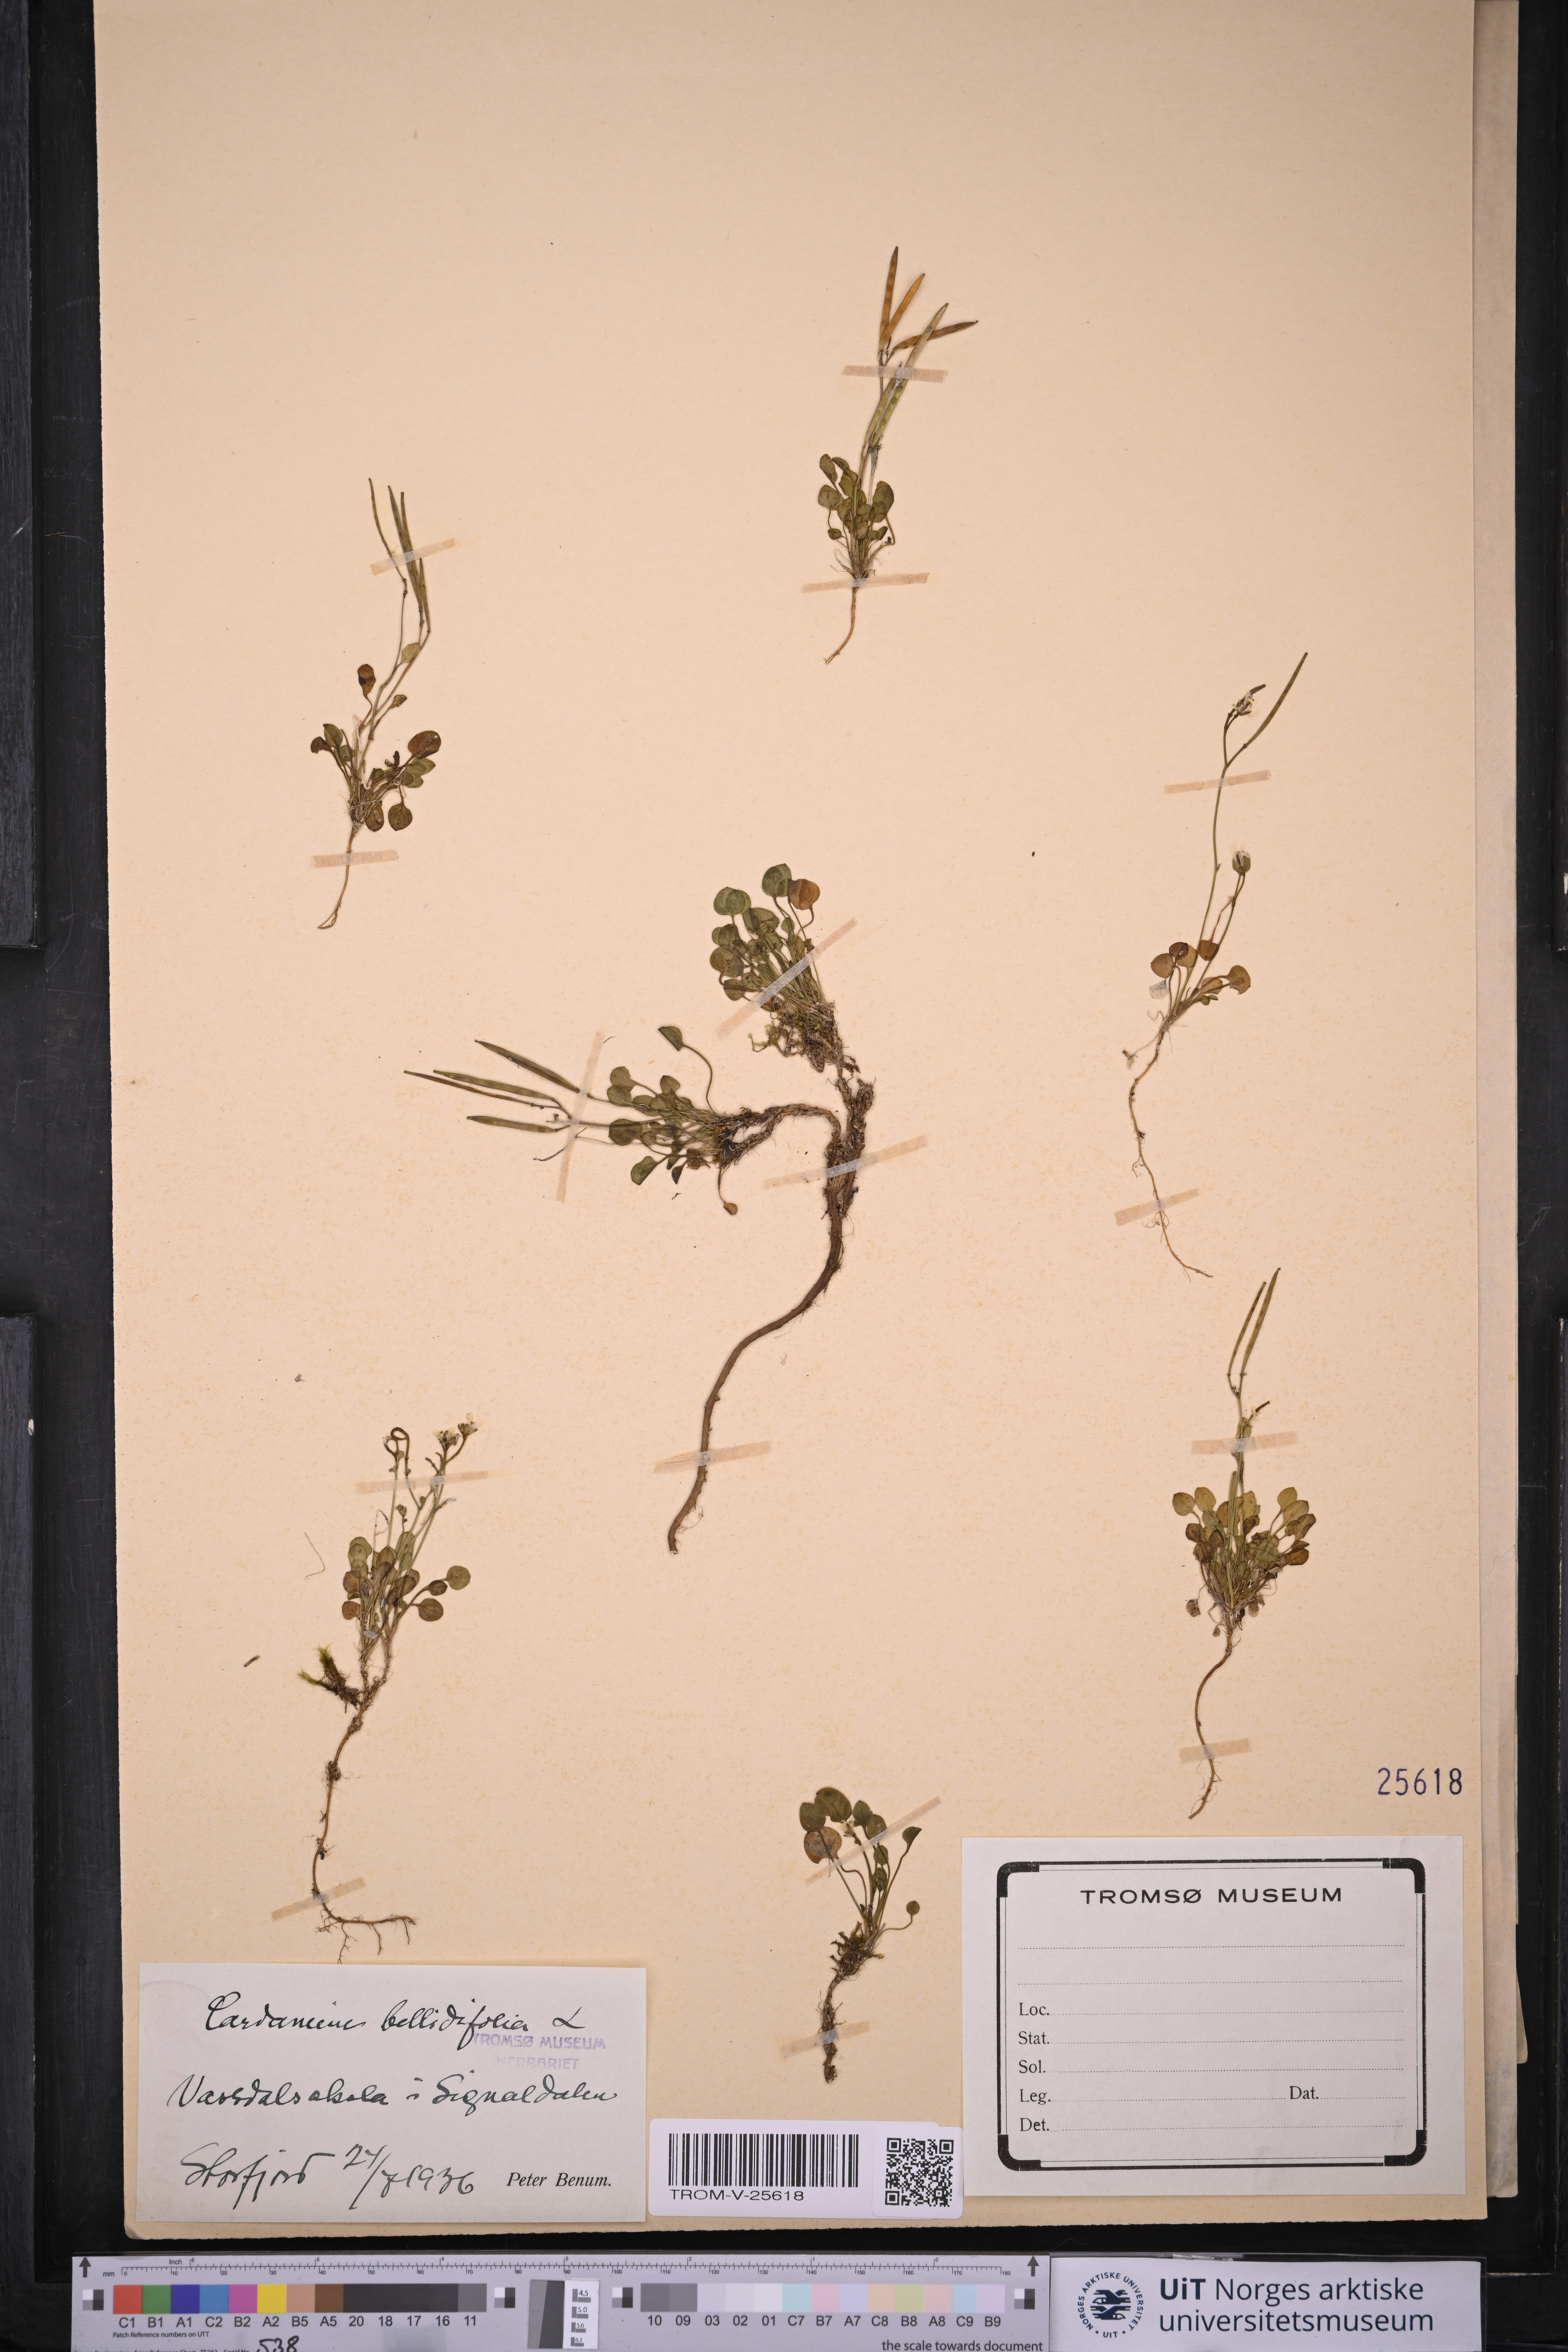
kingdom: Plantae
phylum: Tracheophyta
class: Magnoliopsida
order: Brassicales
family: Brassicaceae
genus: Cardamine
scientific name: Cardamine bellidifolia
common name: Alpine bittercress
